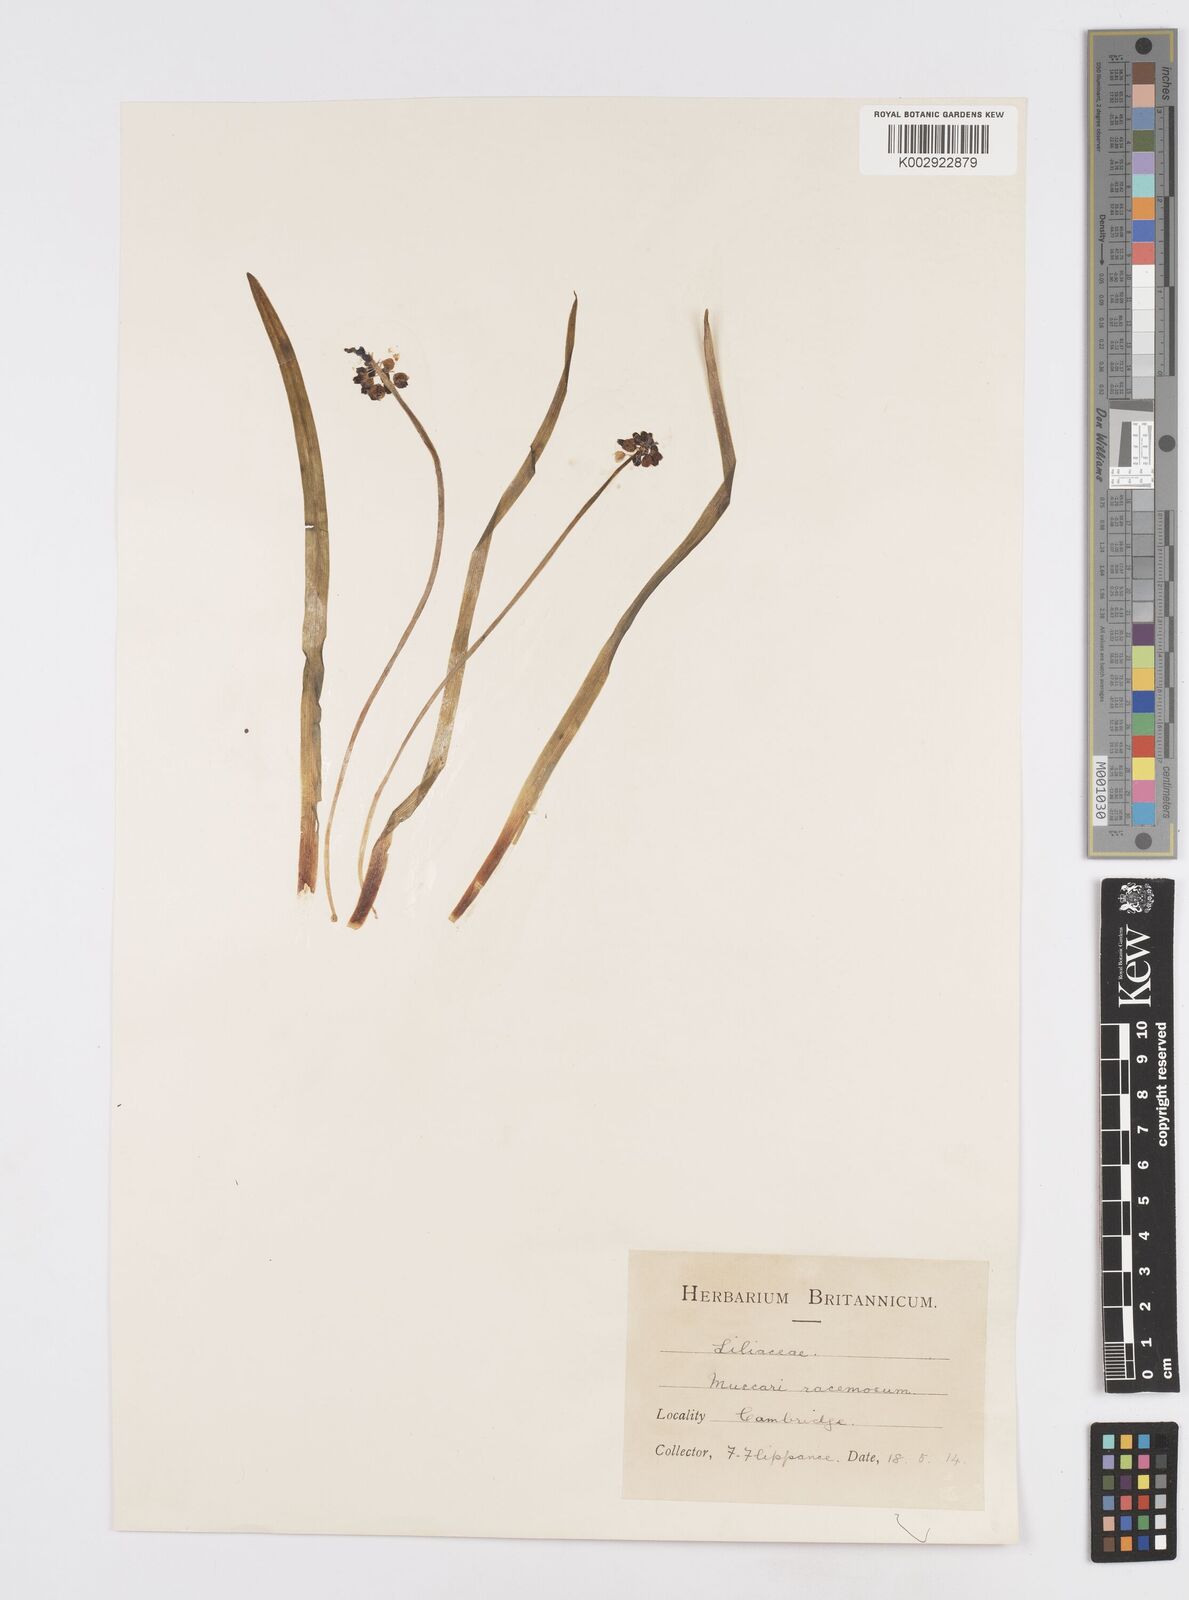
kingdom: Plantae
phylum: Tracheophyta
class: Liliopsida
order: Asparagales
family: Asparagaceae
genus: Muscarimia
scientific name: Muscarimia muscari
